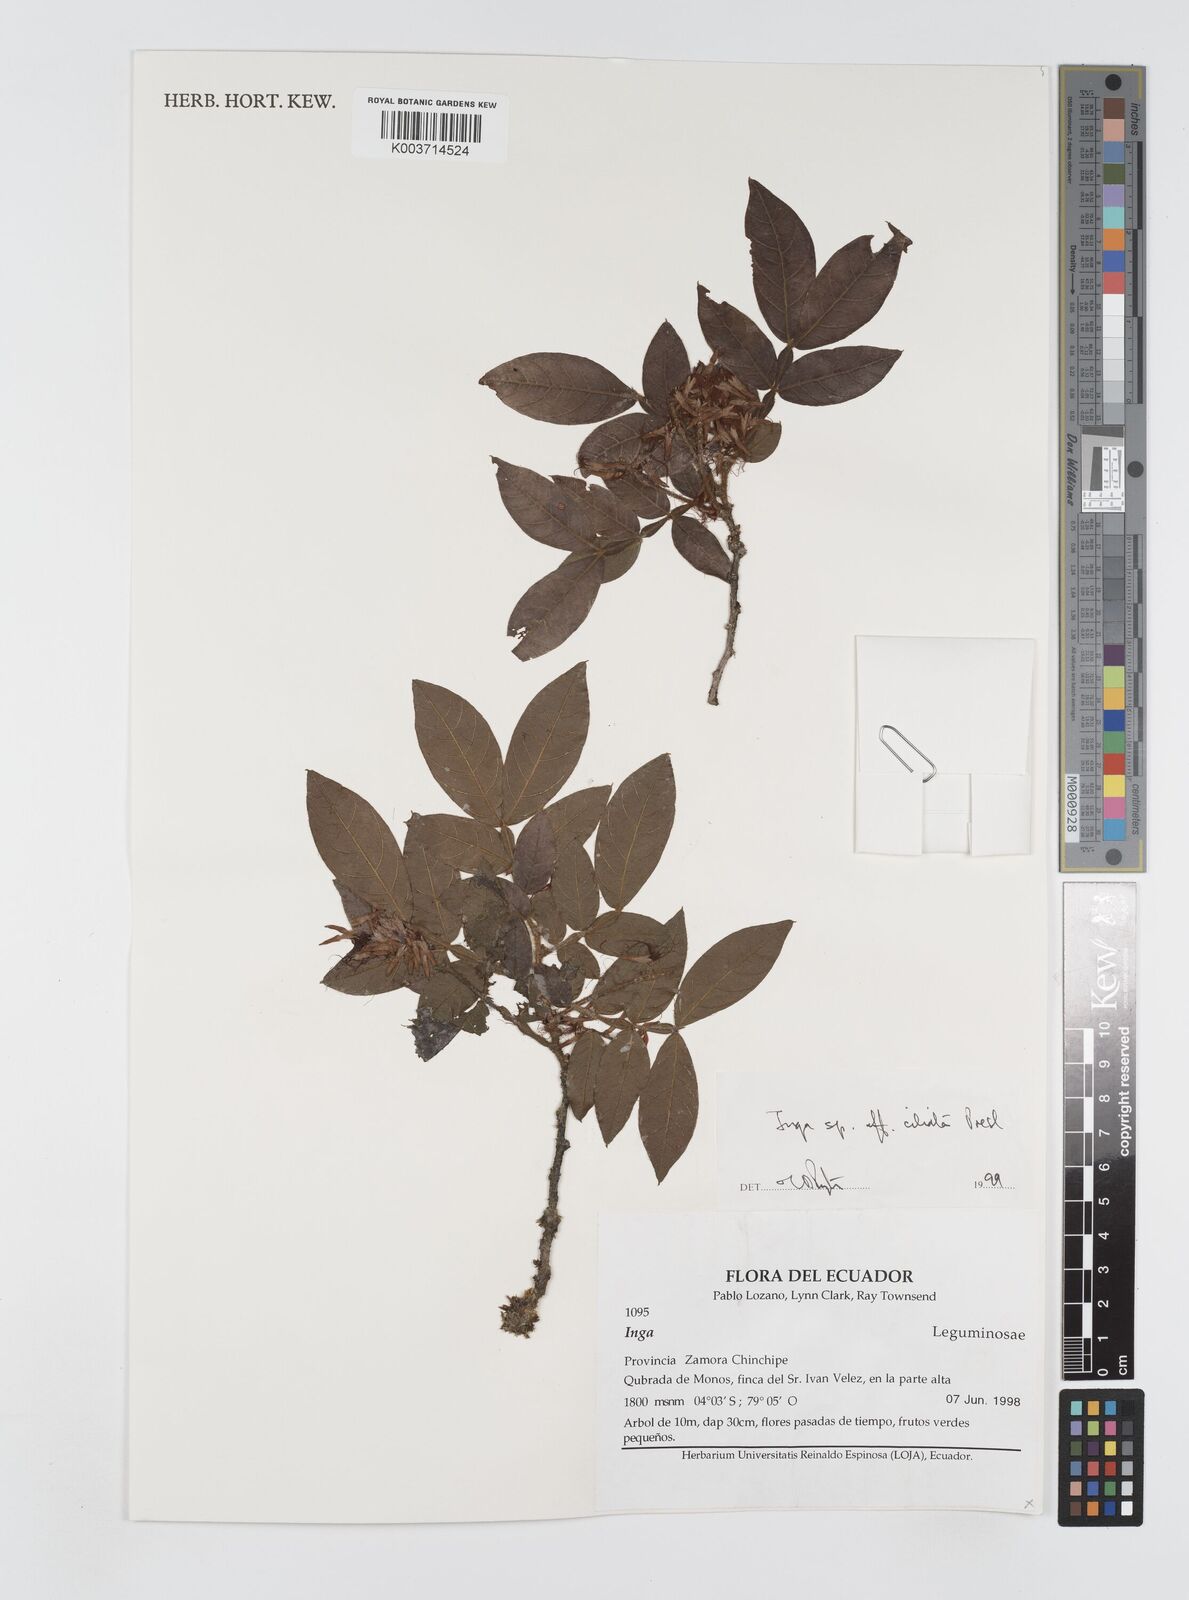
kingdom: Plantae
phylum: Tracheophyta
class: Magnoliopsida
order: Fabales
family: Fabaceae
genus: Inga
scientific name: Inga ciliata
